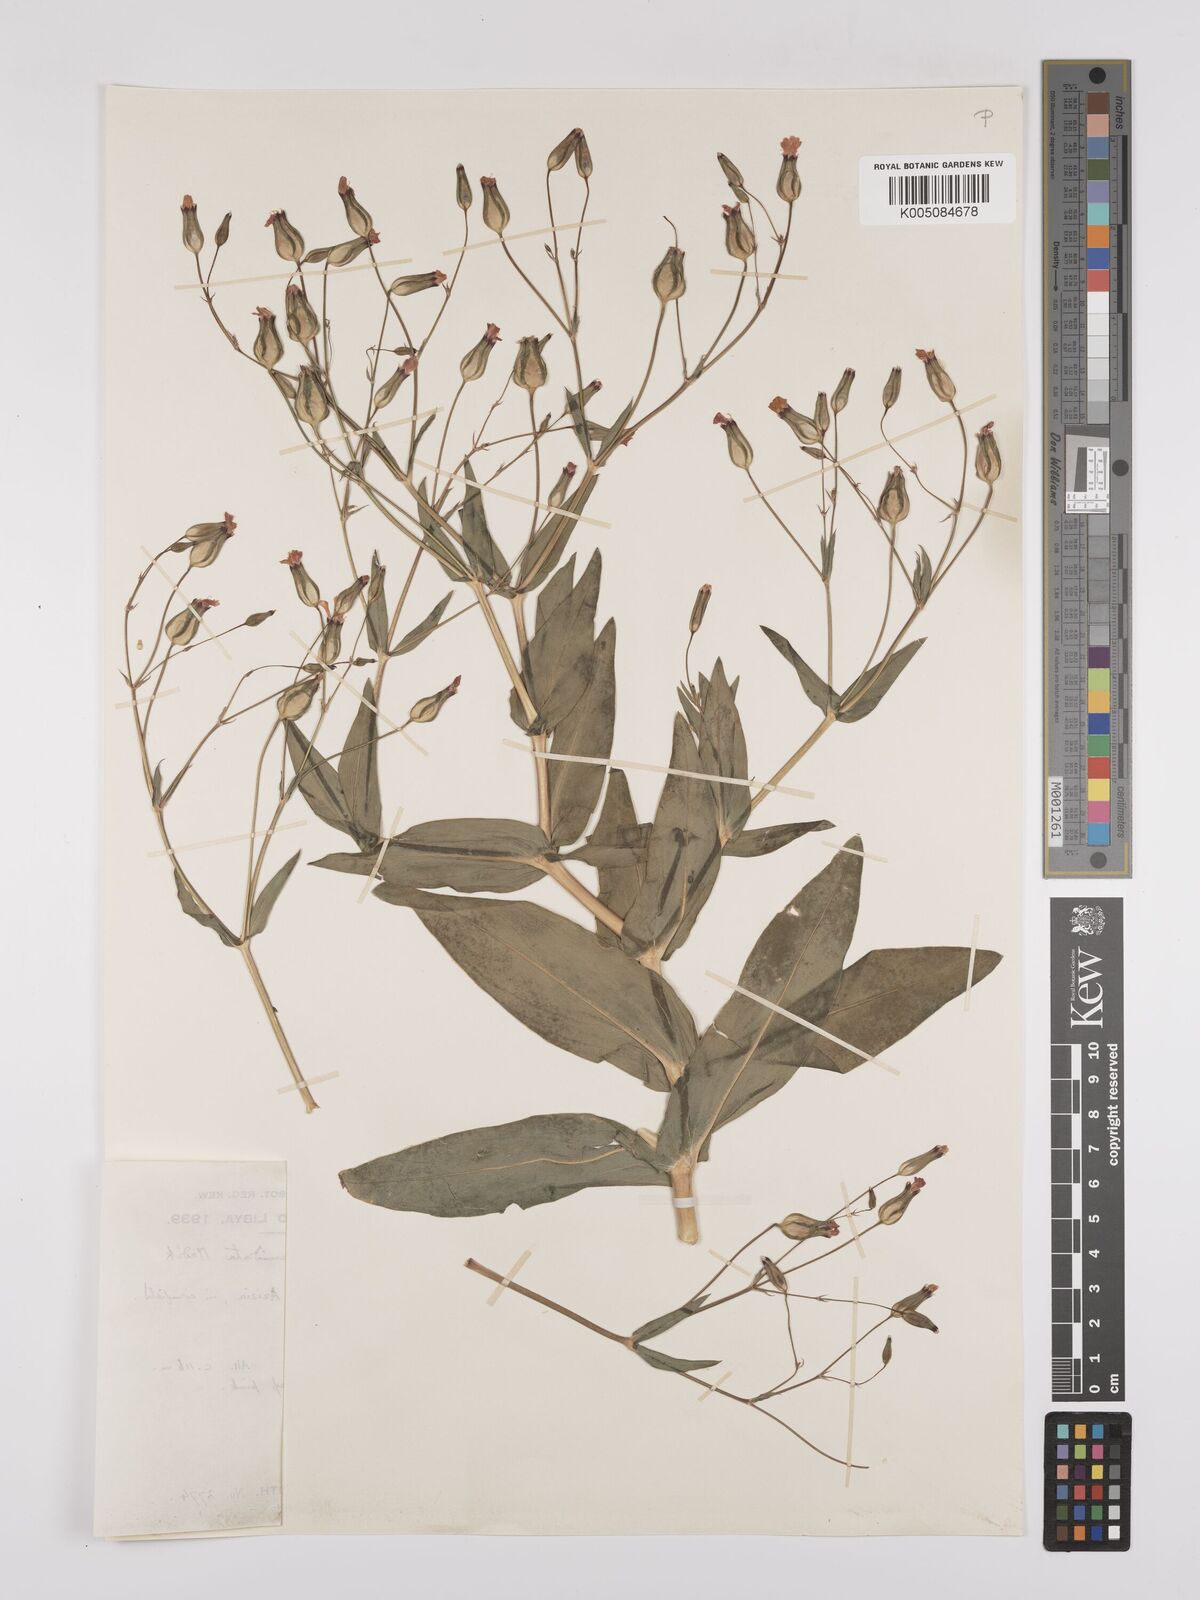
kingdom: Plantae
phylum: Tracheophyta
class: Magnoliopsida
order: Caryophyllales
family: Caryophyllaceae
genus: Gypsophila
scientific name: Gypsophila vaccaria
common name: Cow soapwort
